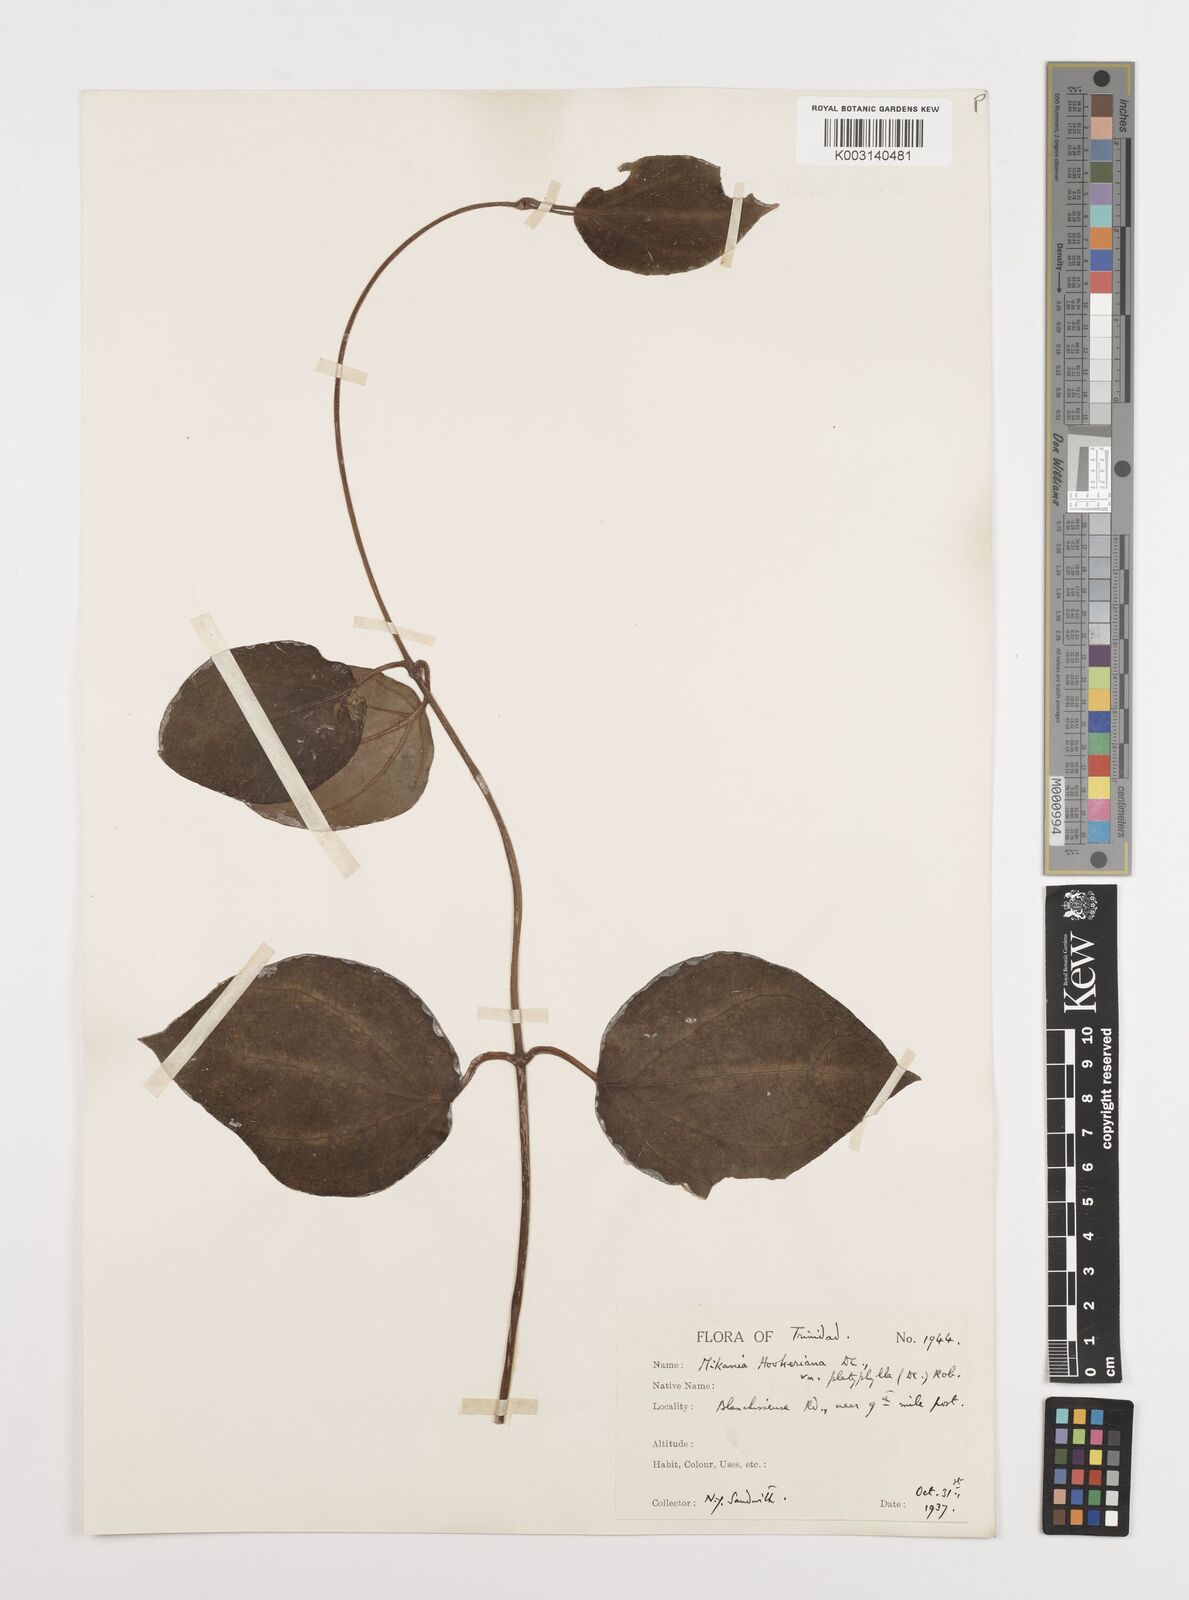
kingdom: Plantae
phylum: Tracheophyta
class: Magnoliopsida
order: Asterales
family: Asteraceae
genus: Mikania
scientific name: Mikania hookeriana
